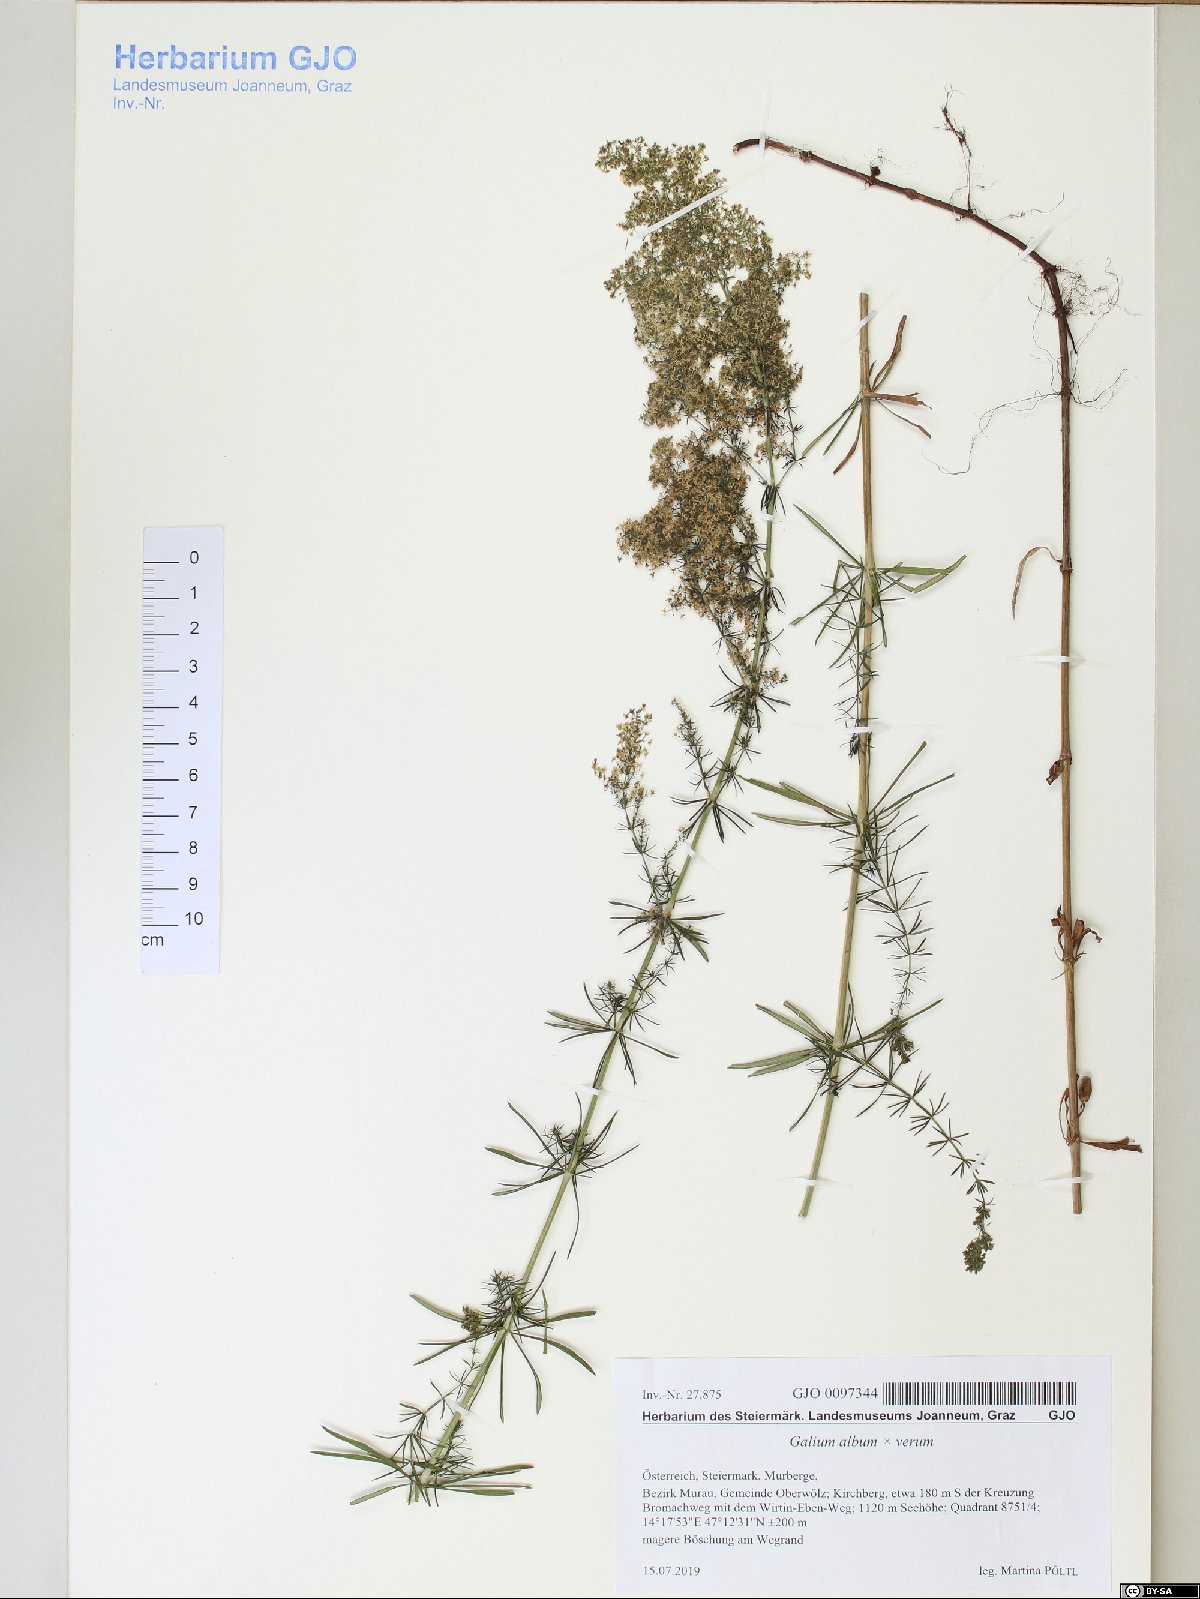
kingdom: Plantae
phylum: Tracheophyta
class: Magnoliopsida
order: Gentianales
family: Rubiaceae
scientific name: Rubiaceae
